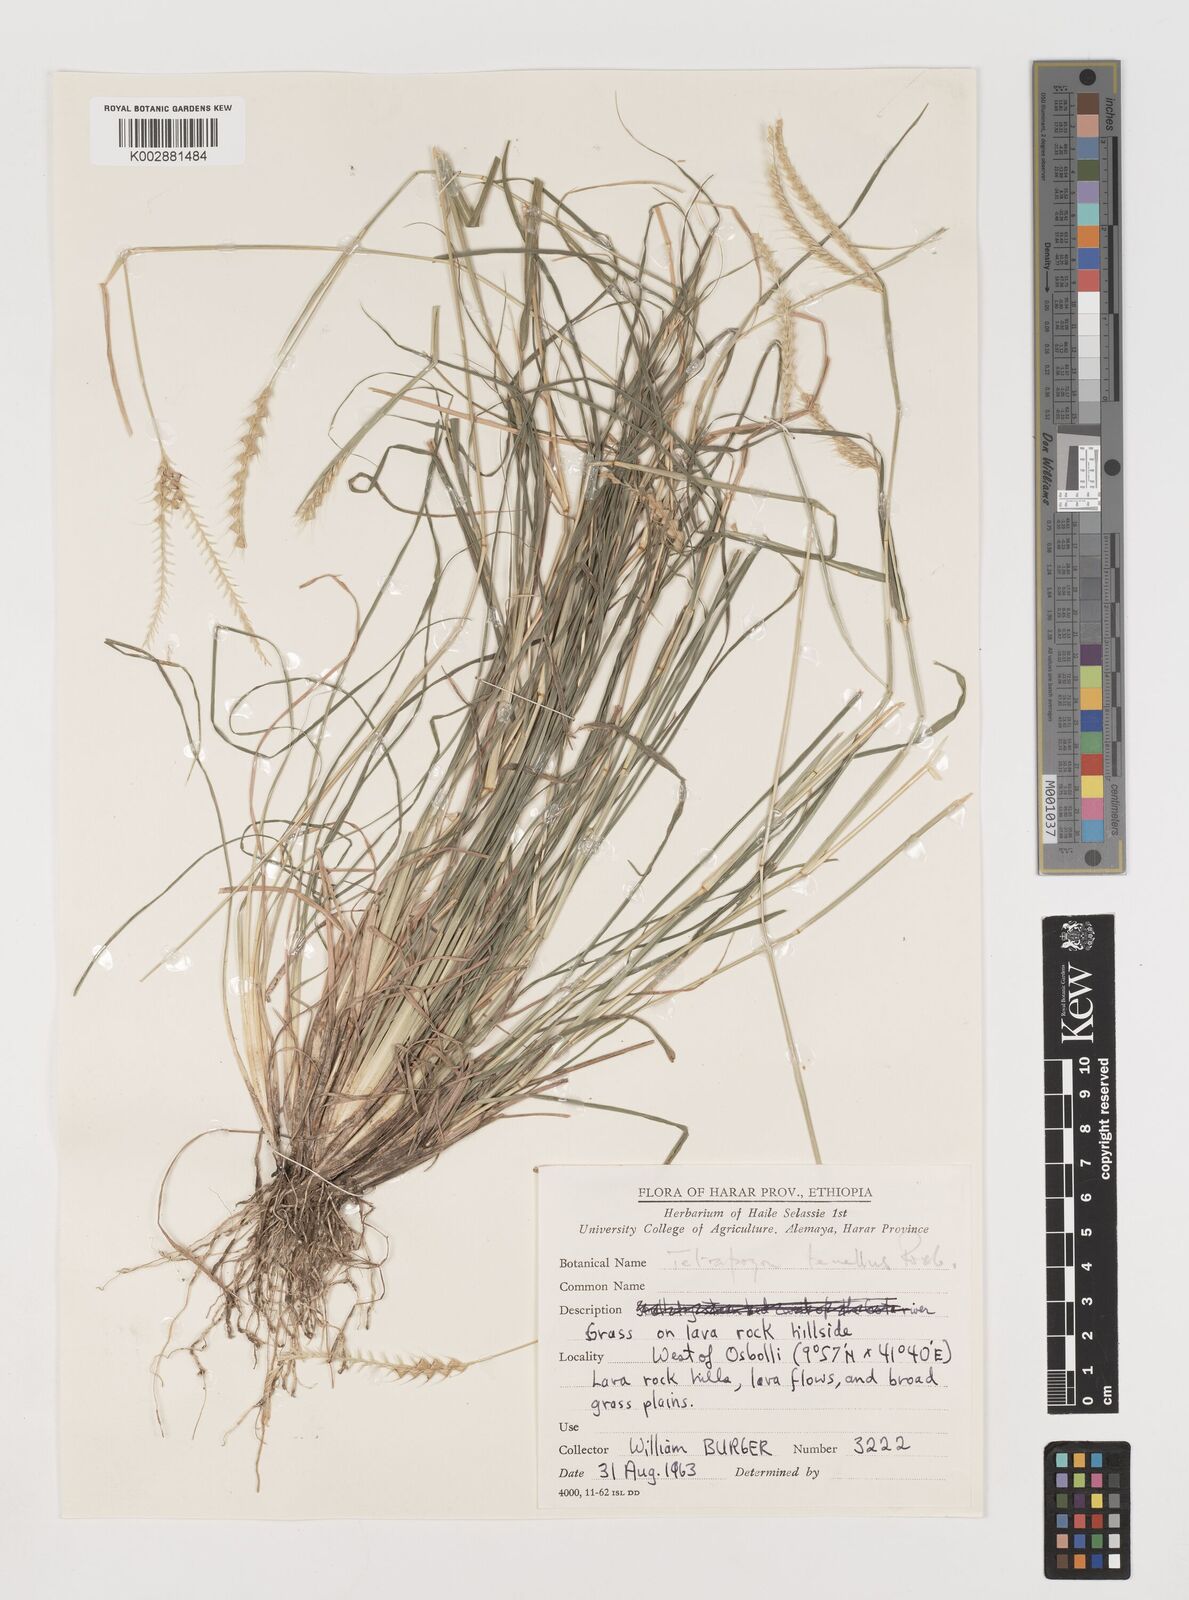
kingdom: Plantae
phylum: Tracheophyta
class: Liliopsida
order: Poales
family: Poaceae
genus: Tetrapogon
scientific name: Tetrapogon tenellus
